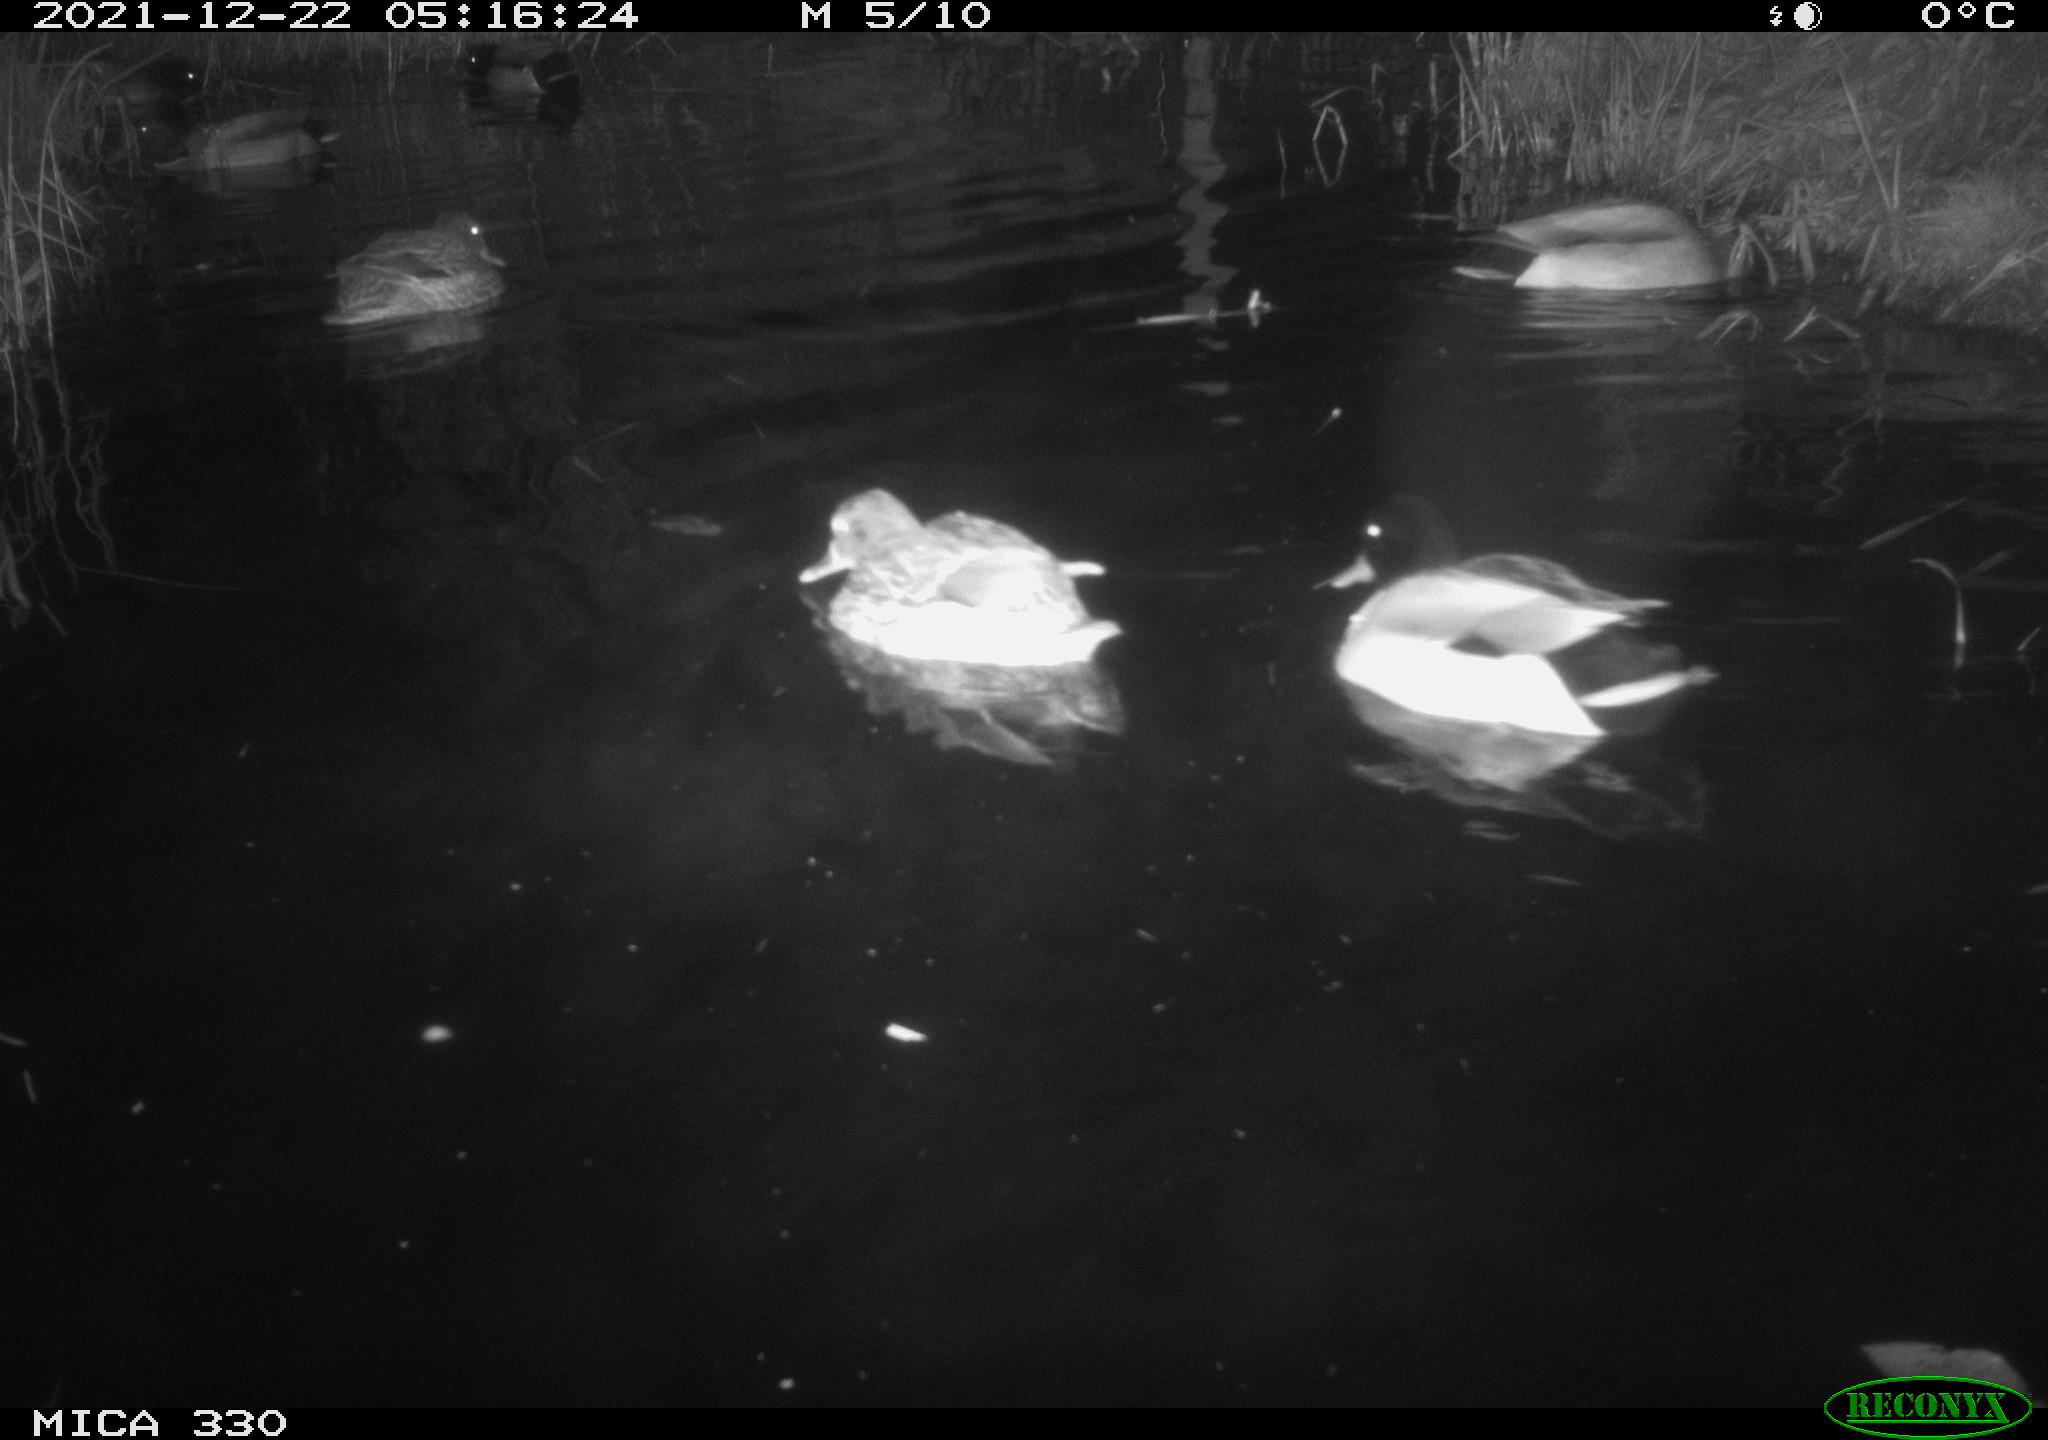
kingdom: Animalia
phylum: Chordata
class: Aves
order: Anseriformes
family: Anatidae
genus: Anas
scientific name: Anas platyrhynchos
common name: Mallard
